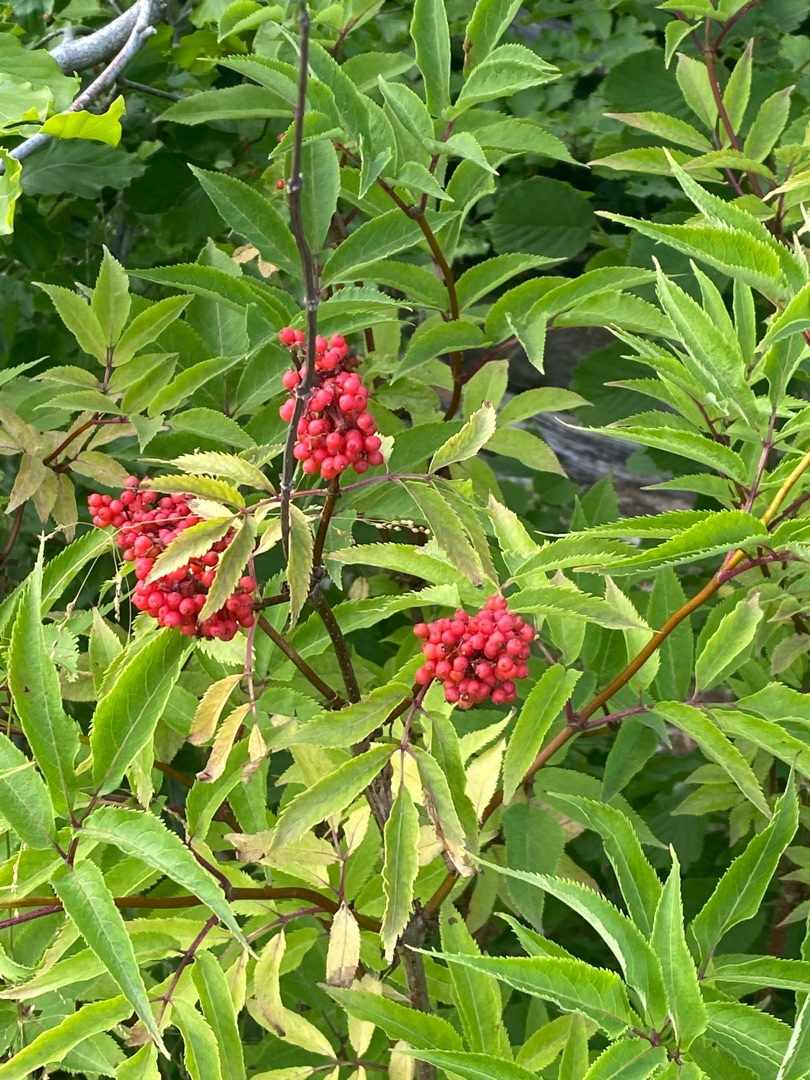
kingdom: Plantae
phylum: Tracheophyta
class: Magnoliopsida
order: Dipsacales
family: Viburnaceae
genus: Sambucus
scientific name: Sambucus racemosa
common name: Drue-hyld
